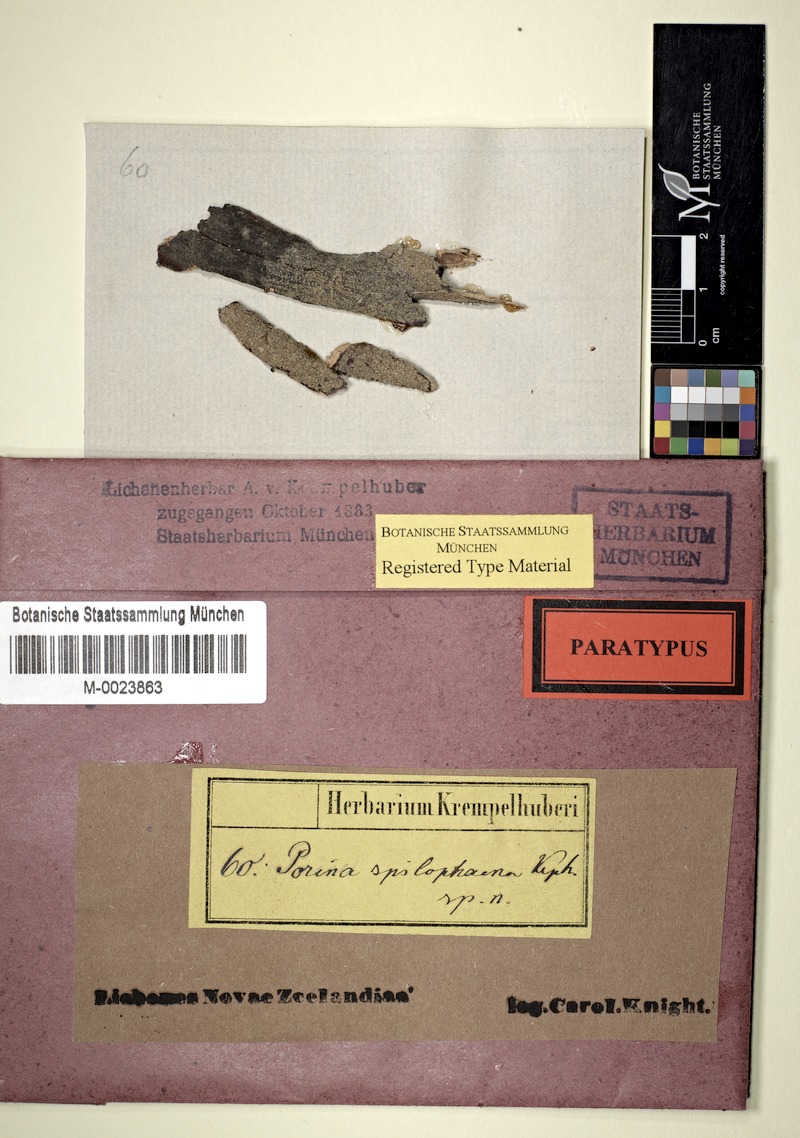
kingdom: Fungi
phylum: Ascomycota
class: Lecanoromycetes
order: Pertusariales
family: Pertusariaceae
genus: Segestria
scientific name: Segestria
